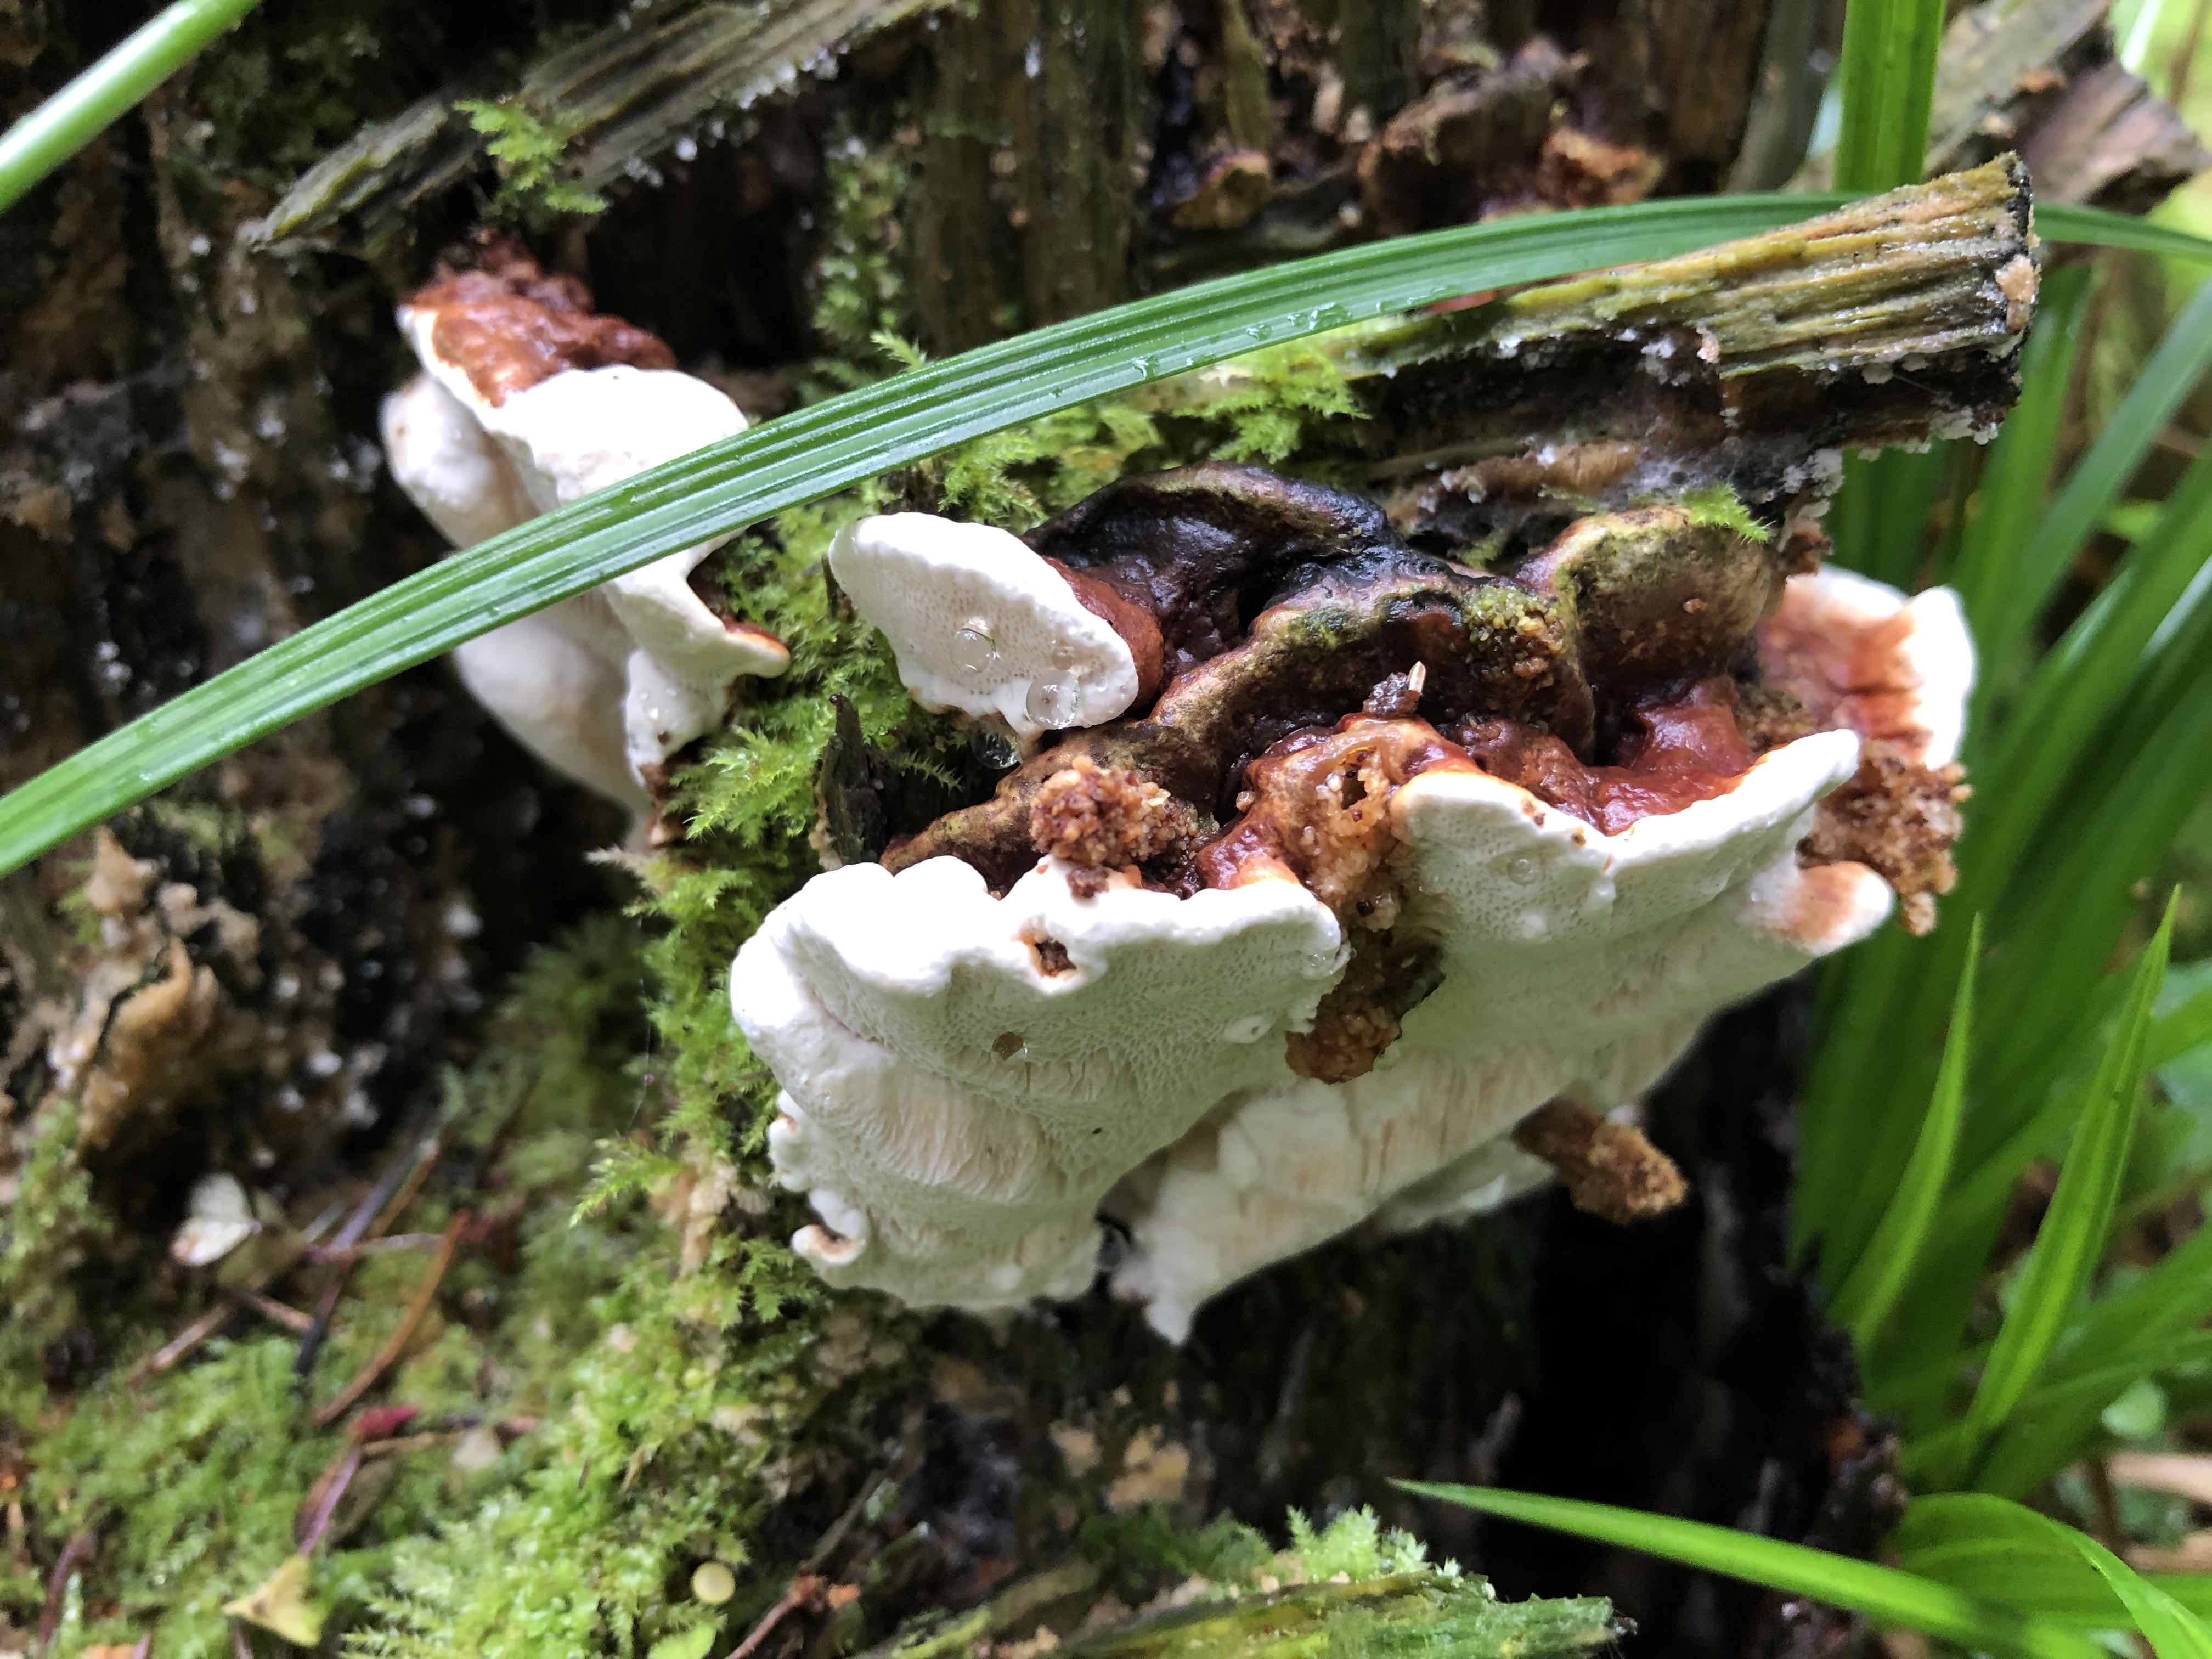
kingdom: Fungi
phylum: Basidiomycota
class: Agaricomycetes
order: Russulales
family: Bondarzewiaceae
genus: Heterobasidion
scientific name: Heterobasidion annosum
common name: almindelig rodfordærver
